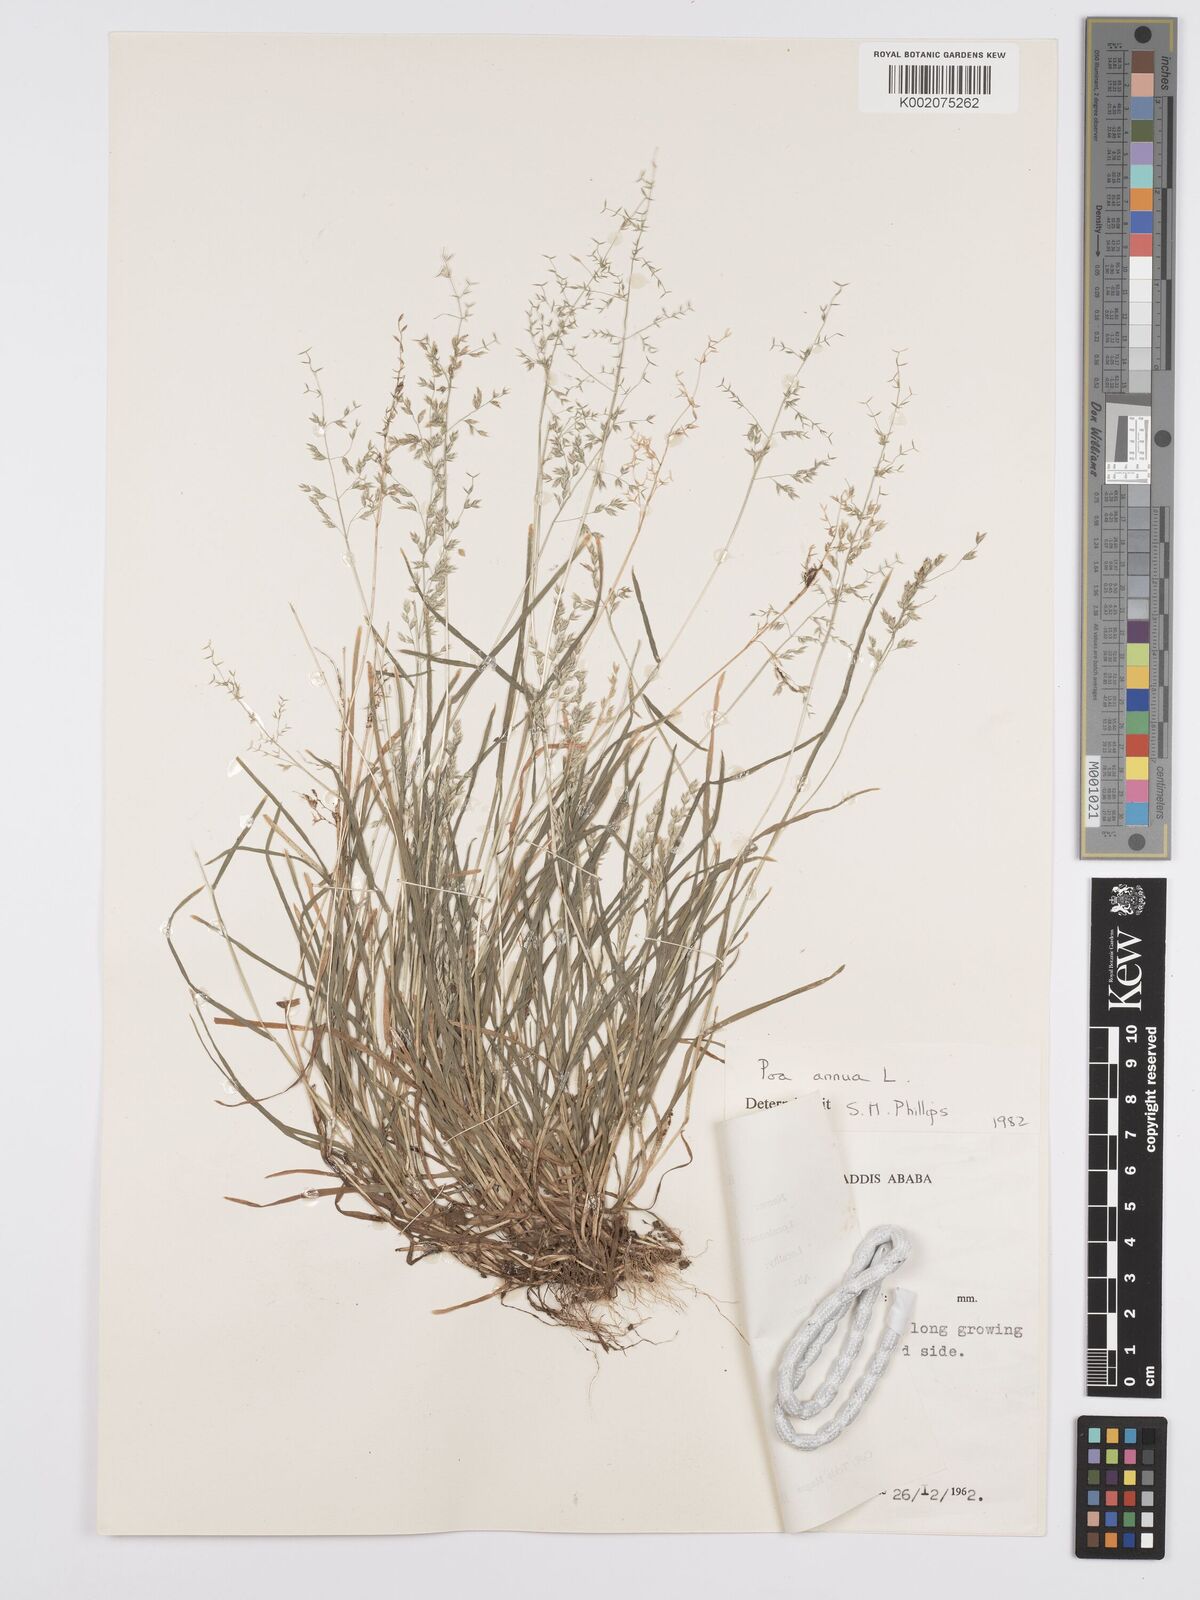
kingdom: Plantae
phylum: Tracheophyta
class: Liliopsida
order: Poales
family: Poaceae
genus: Poa
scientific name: Poa annua
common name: Annual bluegrass
